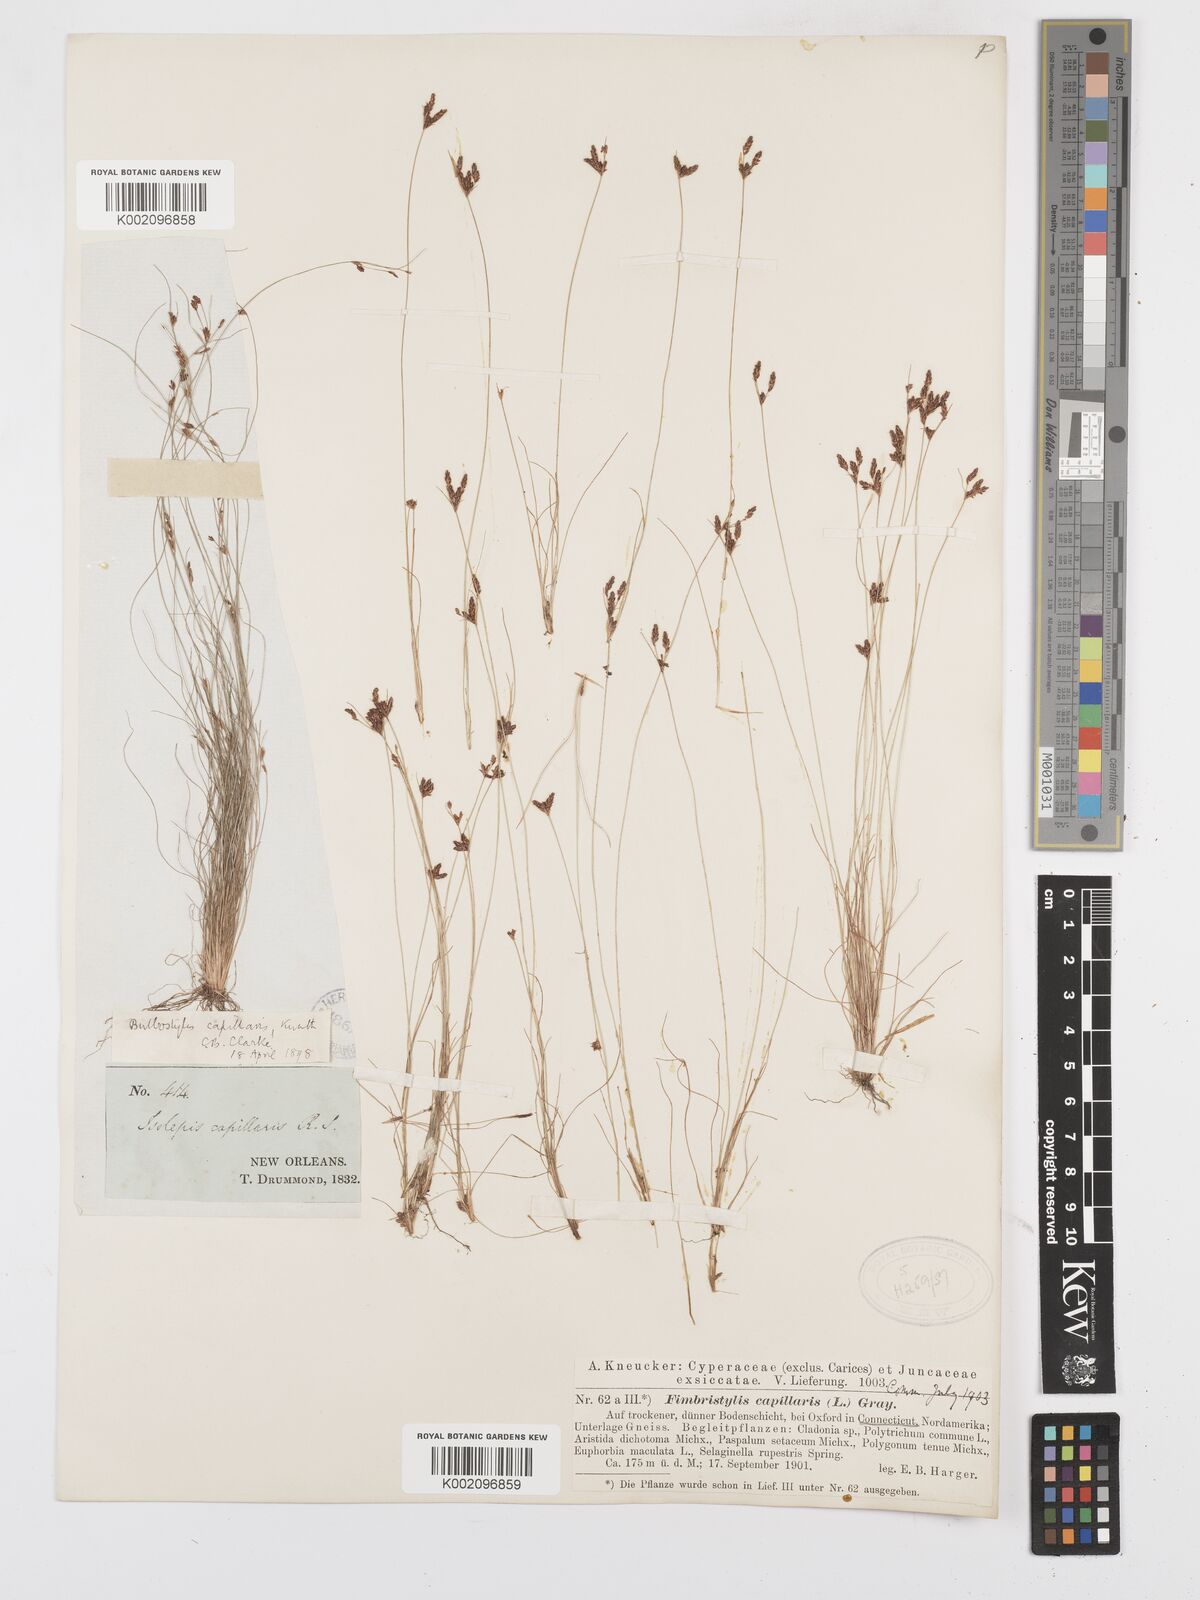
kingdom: Plantae
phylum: Tracheophyta
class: Liliopsida
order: Poales
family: Cyperaceae
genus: Bulbostylis
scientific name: Bulbostylis capillaris
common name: Densetuft hairsedge
